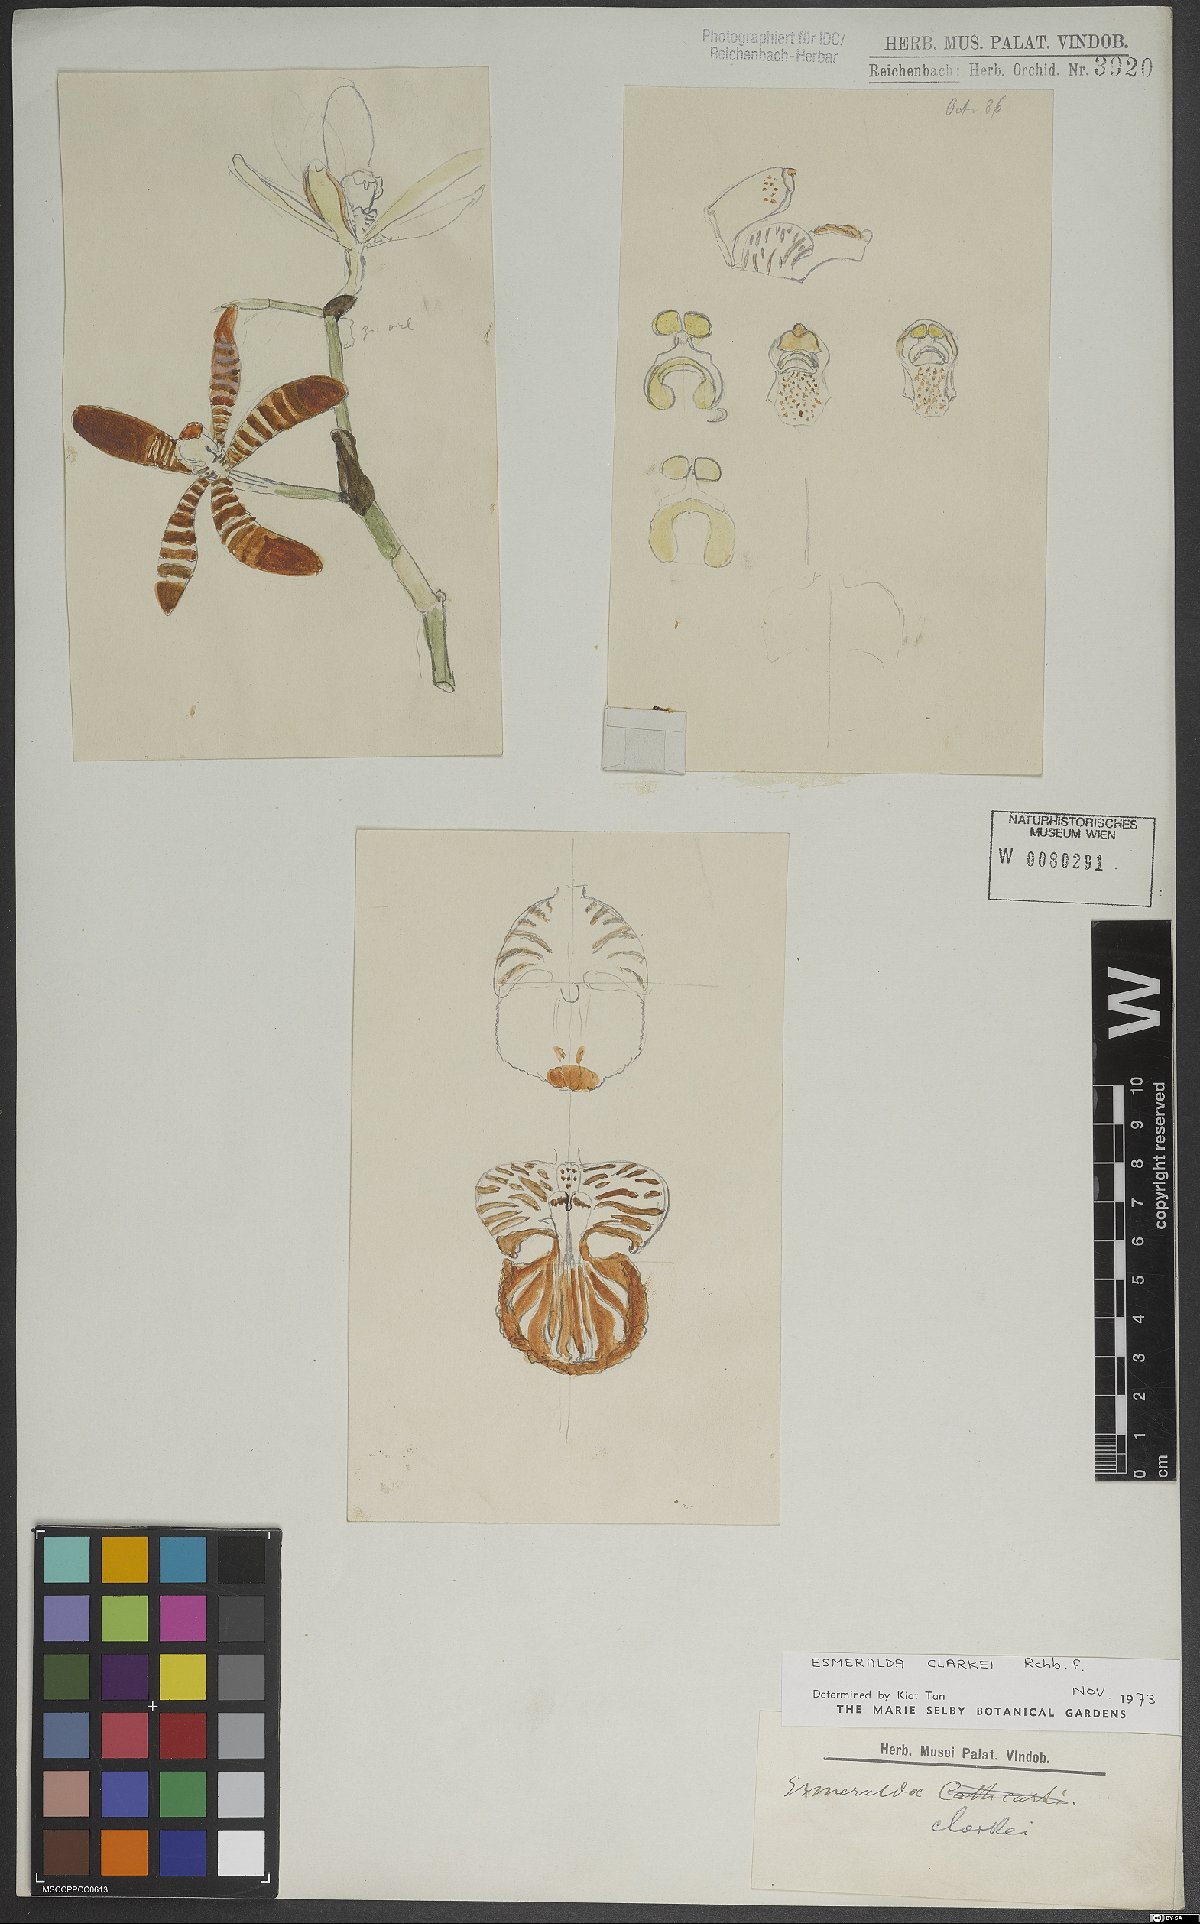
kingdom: Plantae
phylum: Tracheophyta
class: Liliopsida
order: Asparagales
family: Orchidaceae
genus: Arachnis
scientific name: Arachnis
